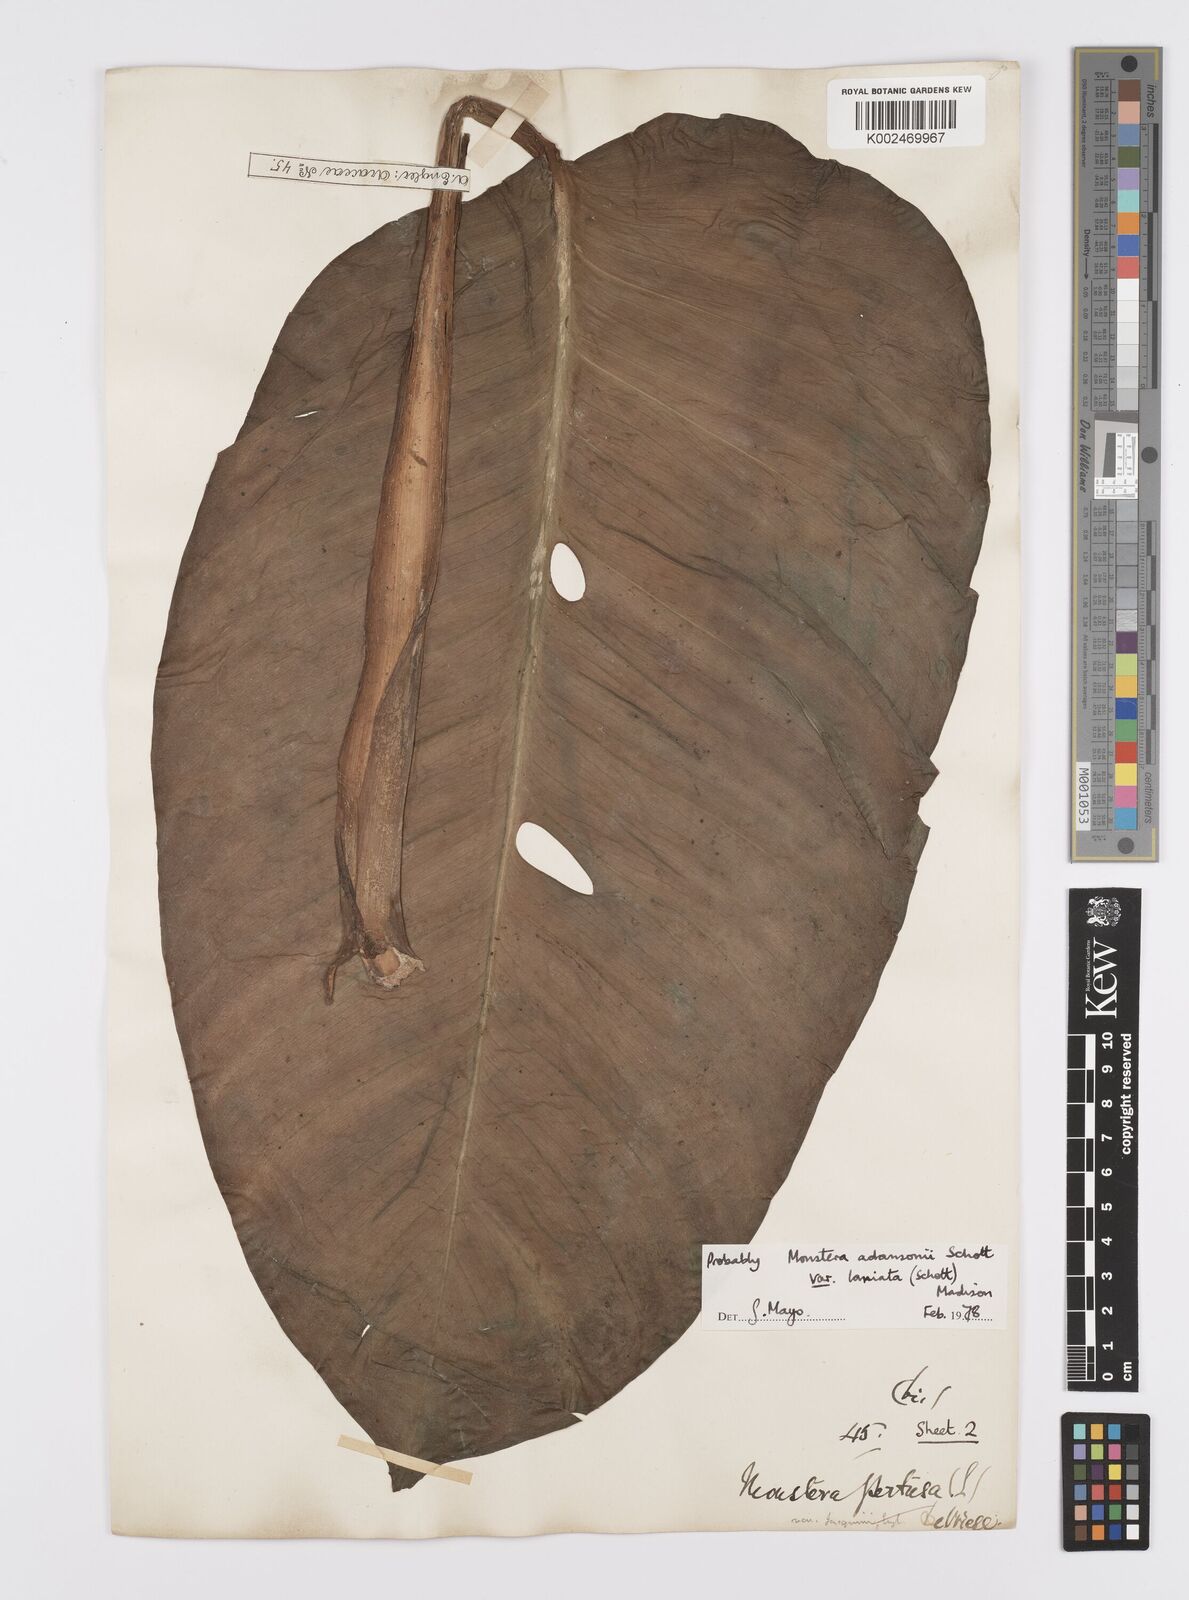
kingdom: Plantae
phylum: Tracheophyta
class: Liliopsida
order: Alismatales
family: Araceae
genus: Monstera
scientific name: Monstera adansonii
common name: Tarovine
